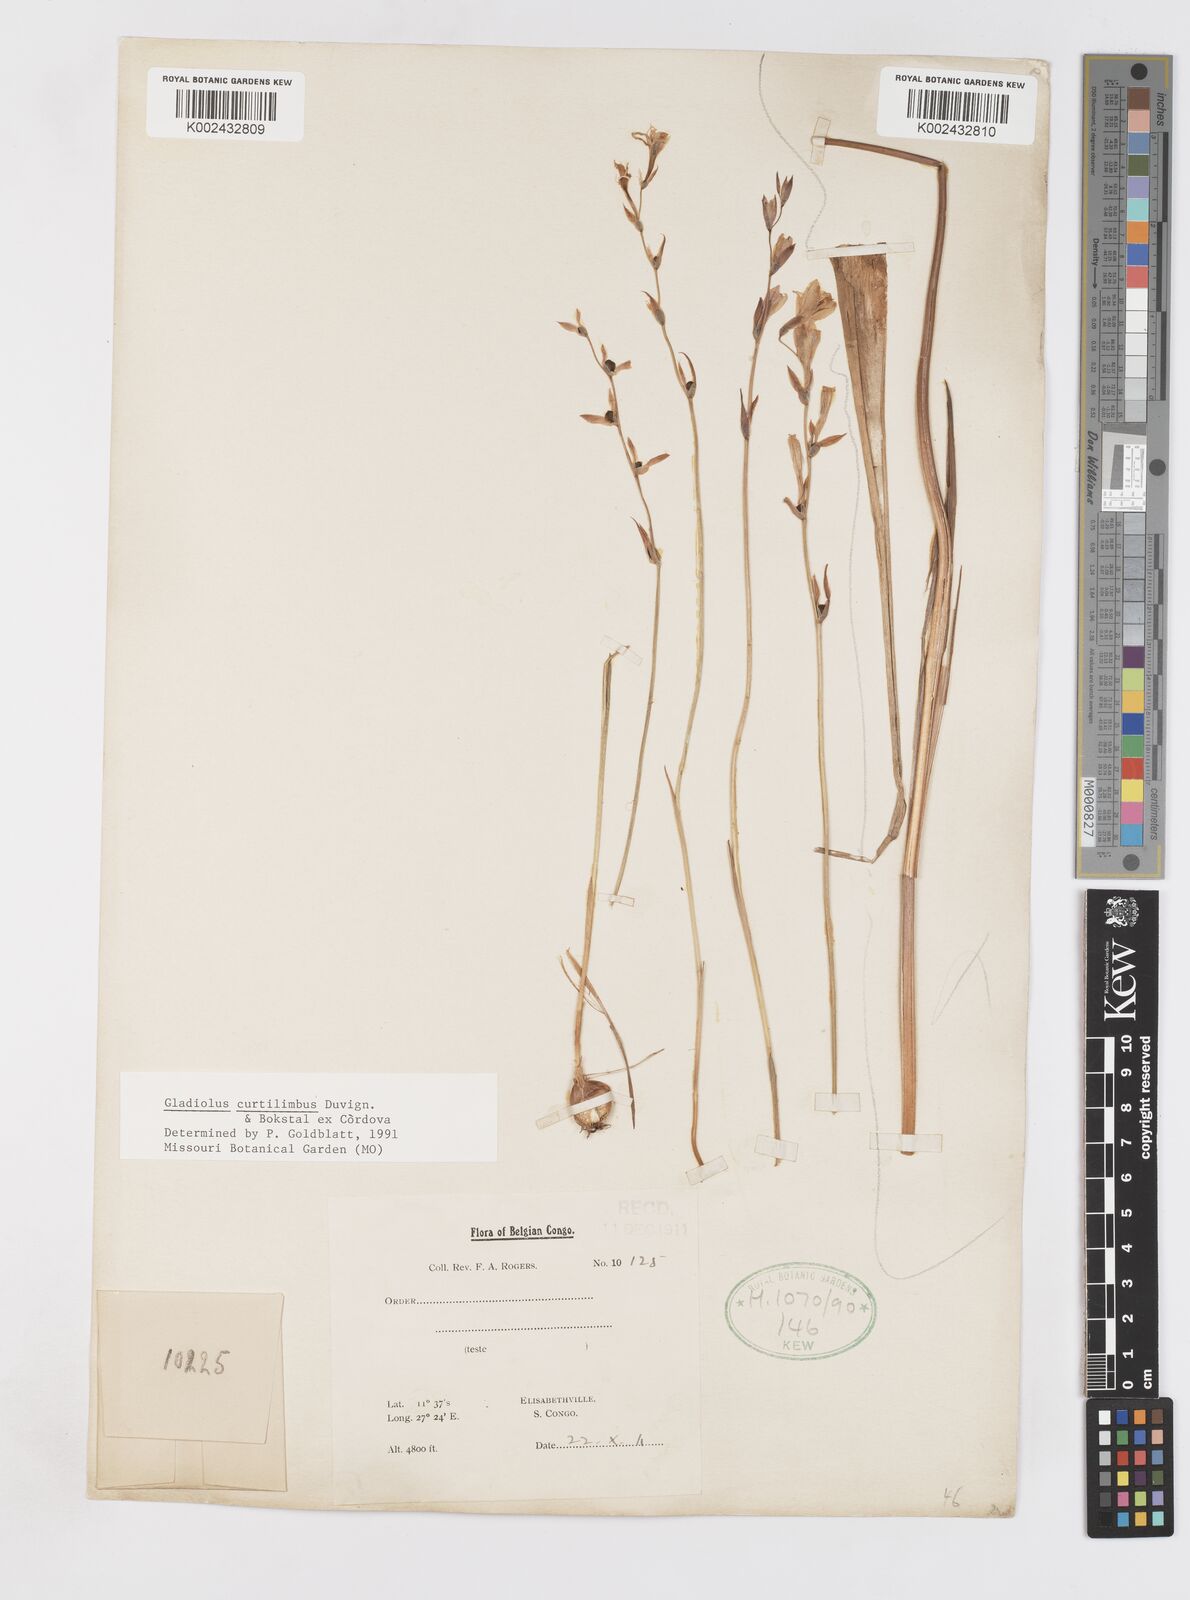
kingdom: Plantae
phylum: Tracheophyta
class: Liliopsida
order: Asparagales
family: Iridaceae
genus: Gladiolus
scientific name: Gladiolus curtilimbus
